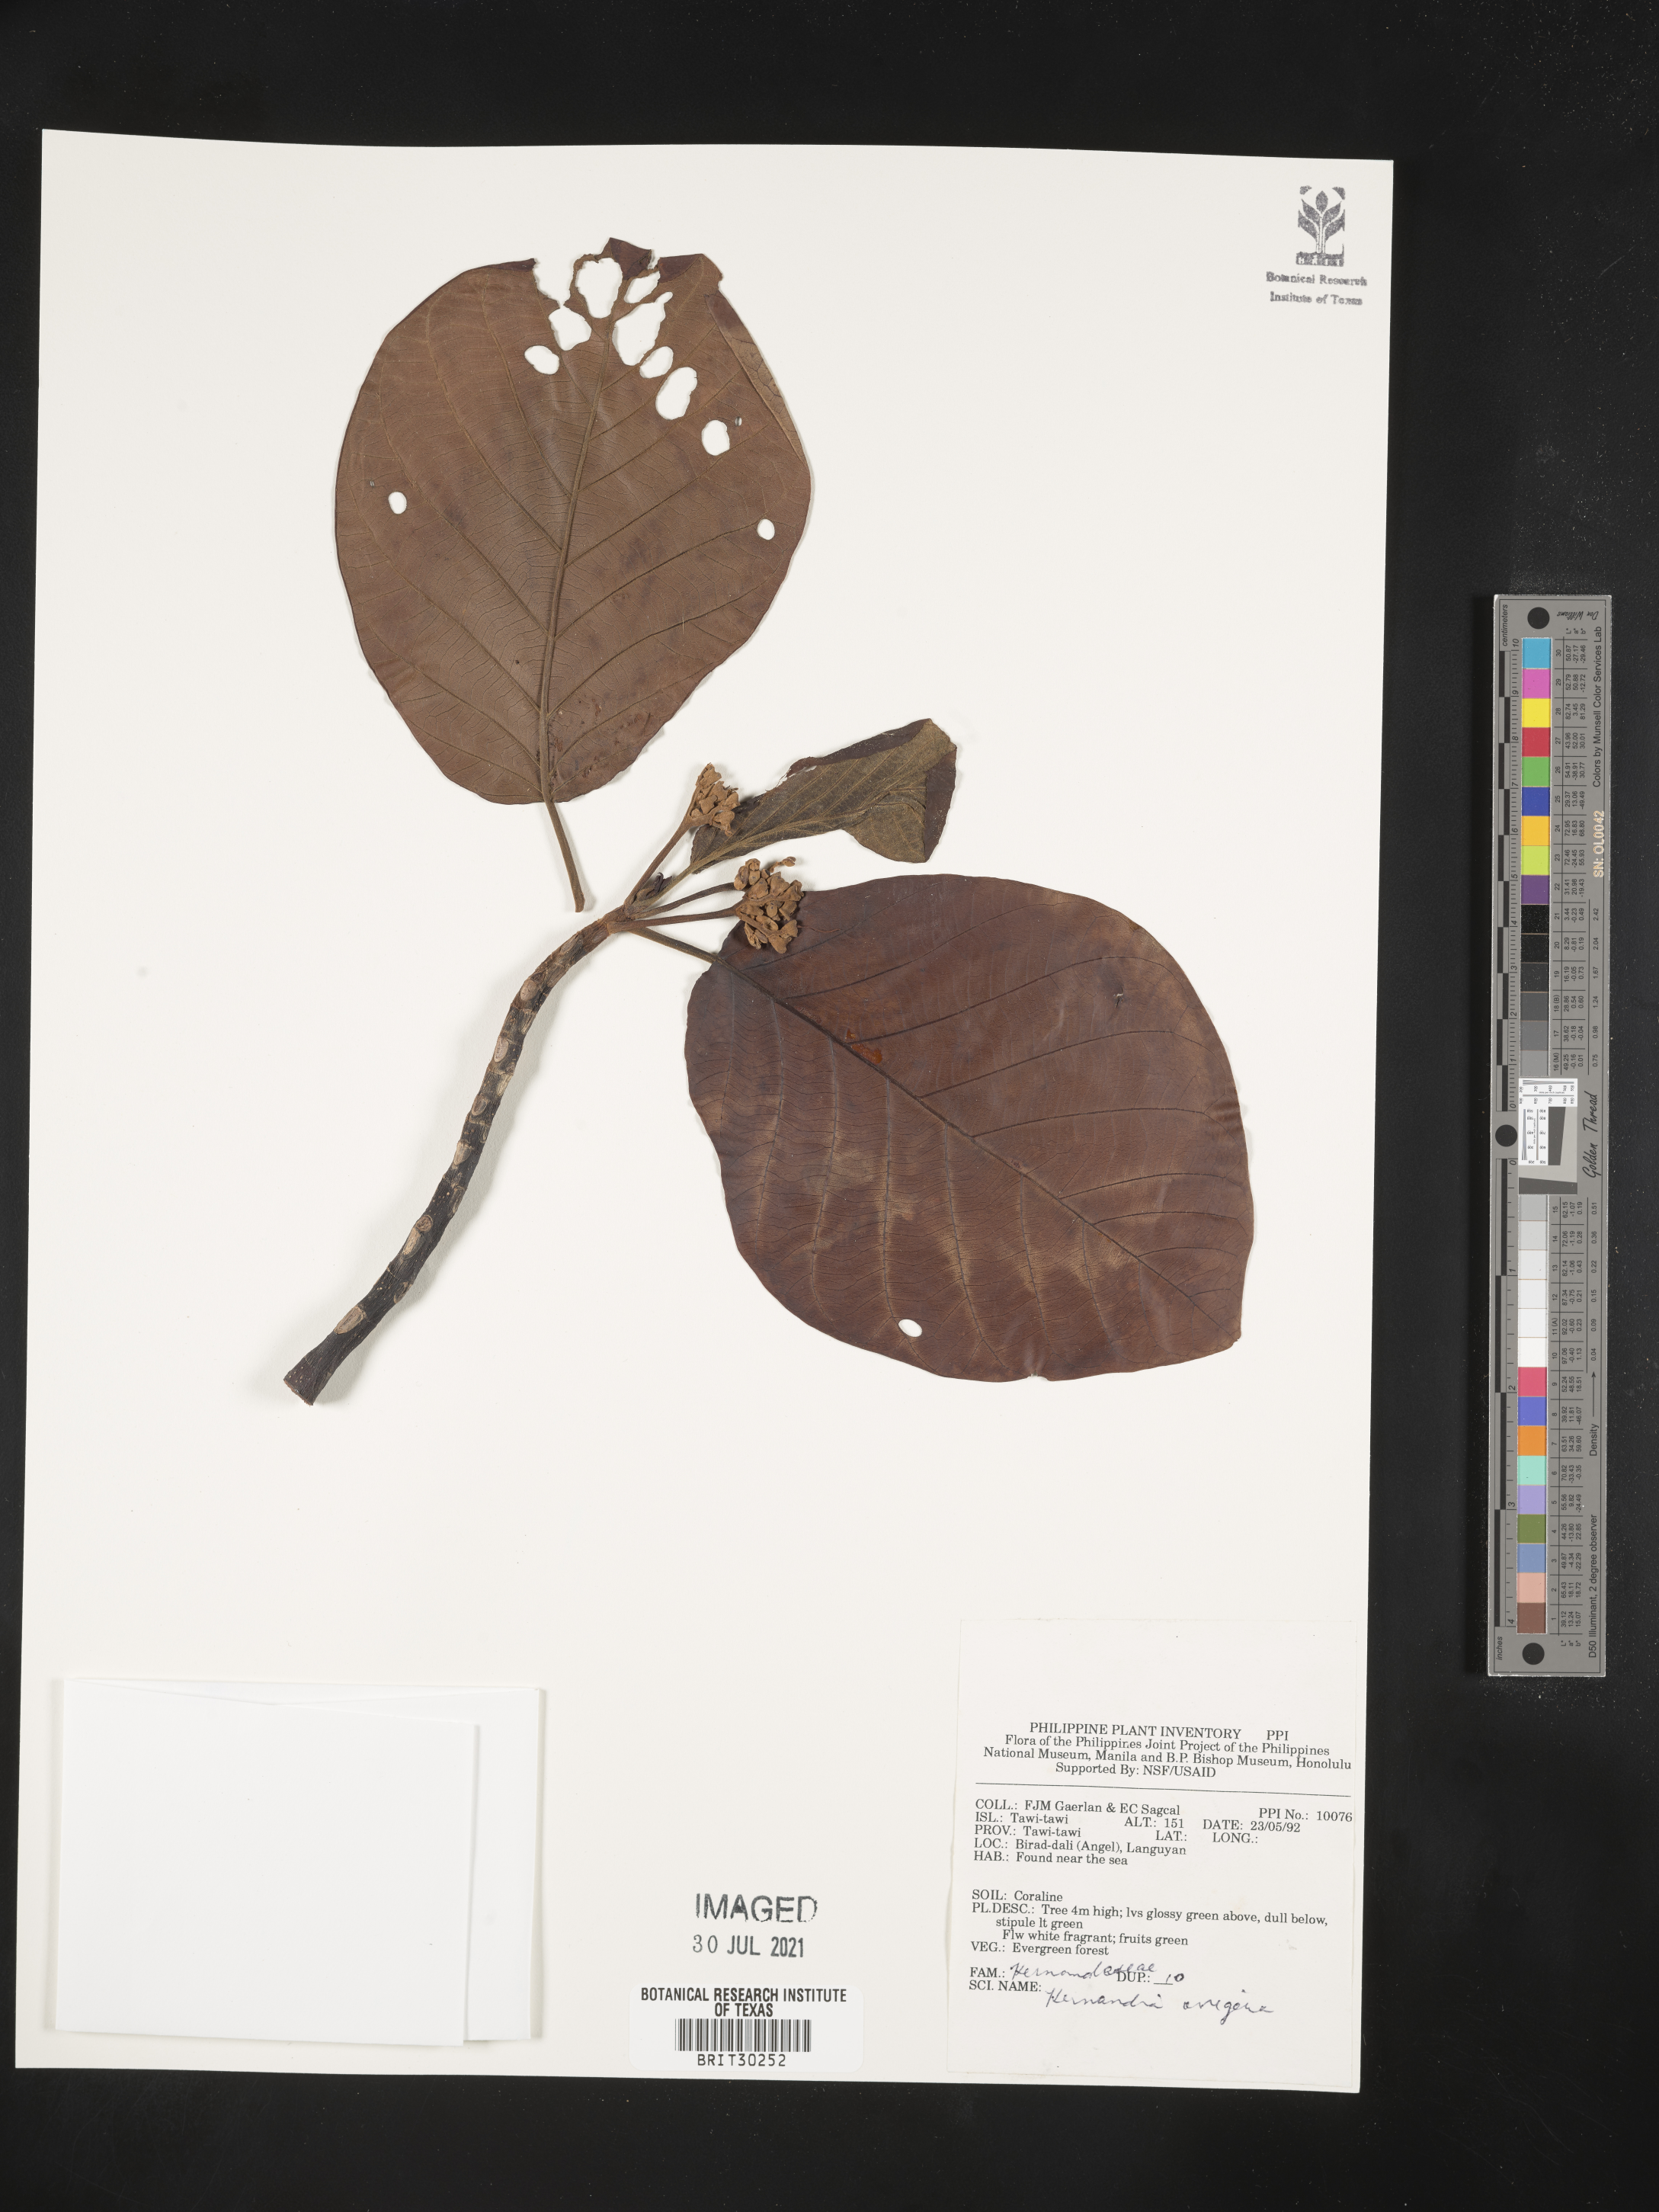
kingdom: Plantae
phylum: Tracheophyta
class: Magnoliopsida
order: Laurales
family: Hernandiaceae
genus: Hernandia
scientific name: Hernandia ovigera
